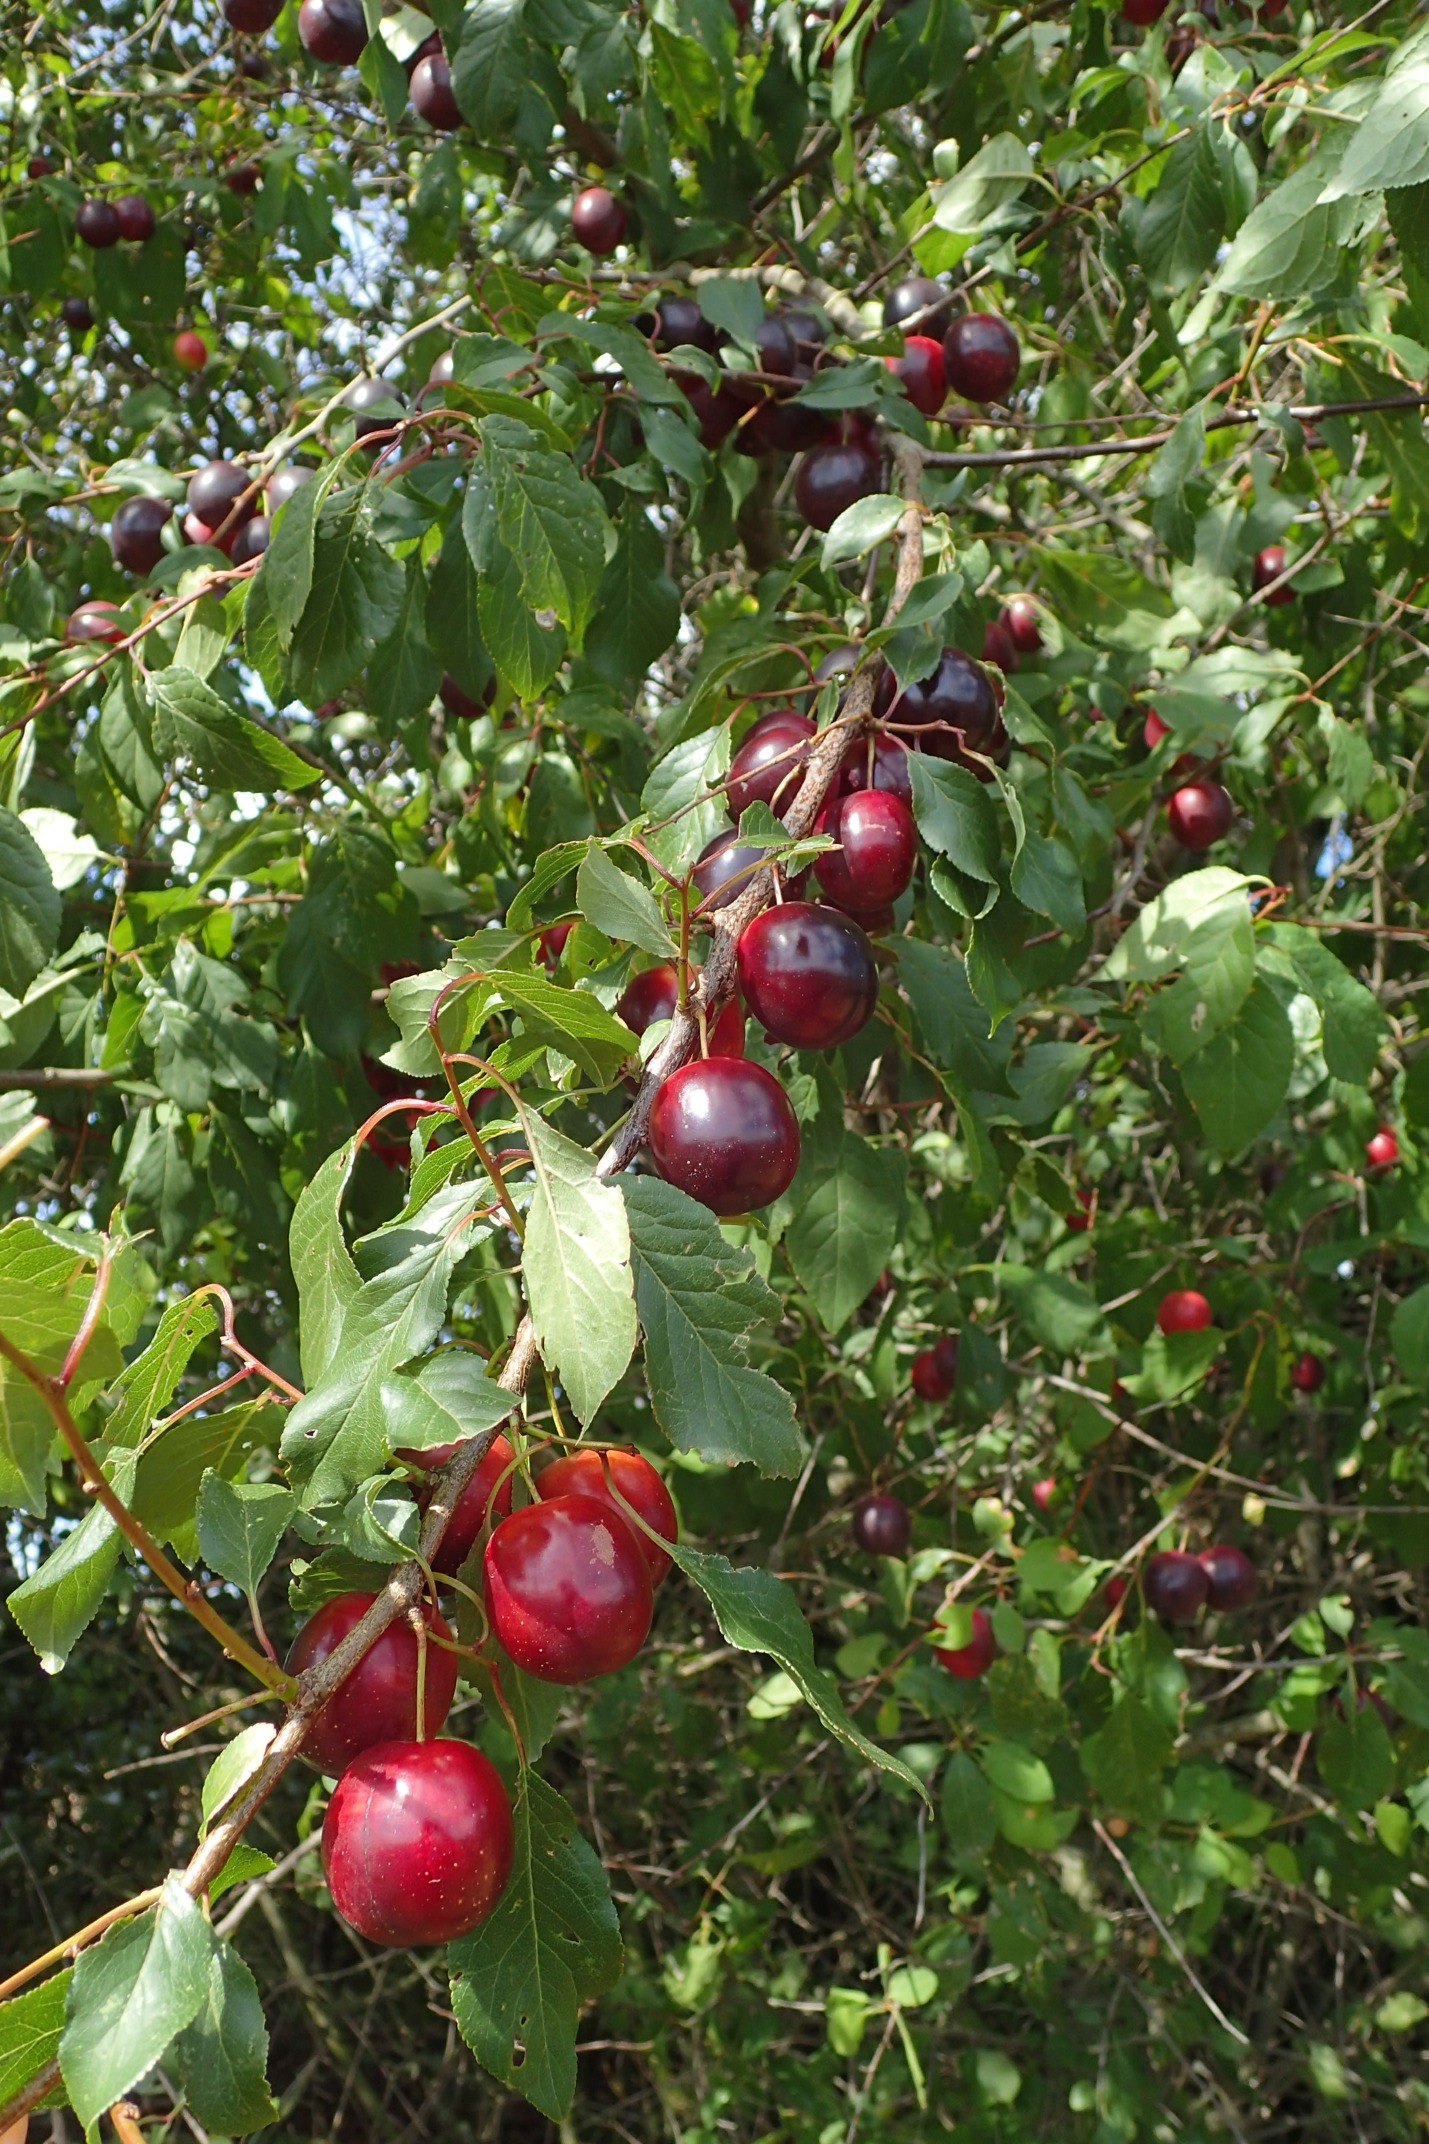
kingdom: Plantae
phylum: Tracheophyta
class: Magnoliopsida
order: Rosales
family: Rosaceae
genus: Prunus
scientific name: Prunus cerasifera
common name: Mirabel
